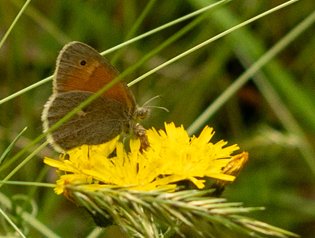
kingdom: Animalia
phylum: Arthropoda
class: Insecta
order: Lepidoptera
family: Nymphalidae
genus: Coenonympha
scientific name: Coenonympha tullia
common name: Large Heath
